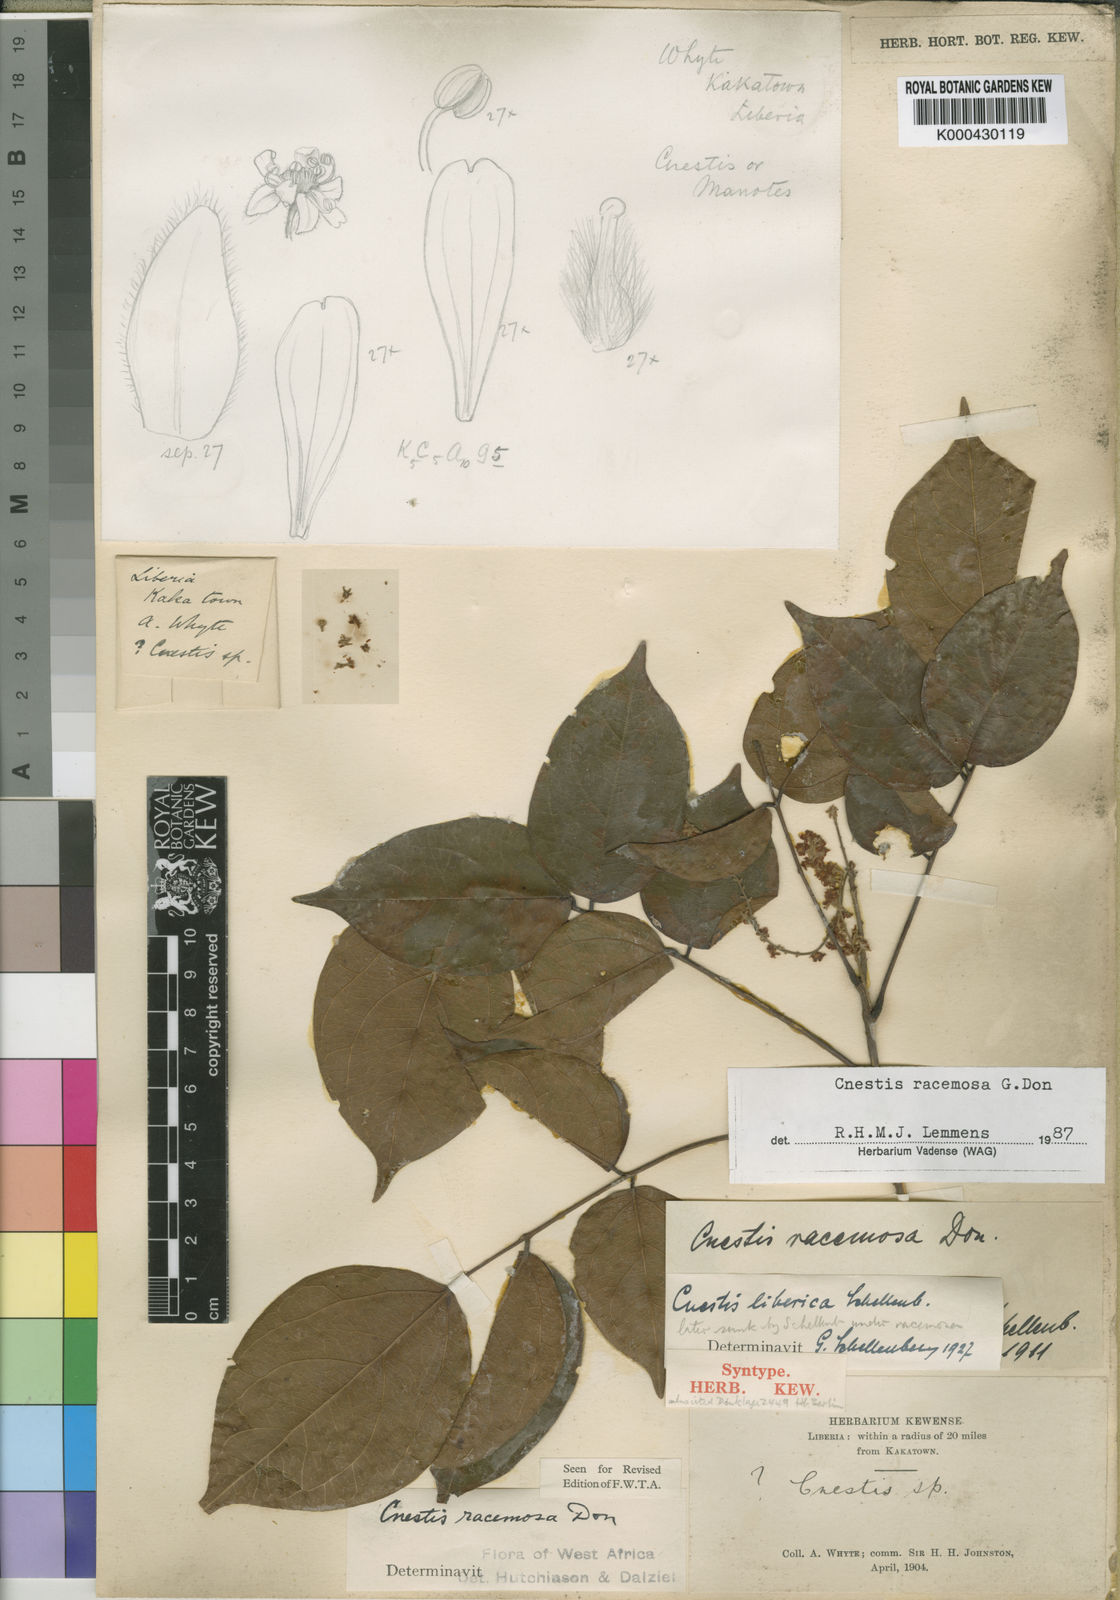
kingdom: Plantae
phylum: Tracheophyta
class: Magnoliopsida
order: Oxalidales
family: Connaraceae
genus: Cnestis
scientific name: Cnestis racemosa
